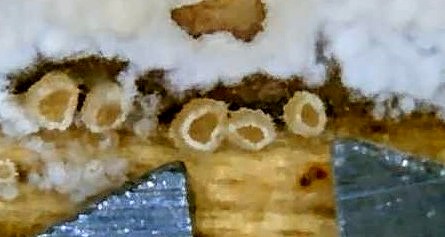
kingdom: Fungi
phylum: Ascomycota
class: Leotiomycetes
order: Helotiales
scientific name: Helotiales
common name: stilkskiveordenen
